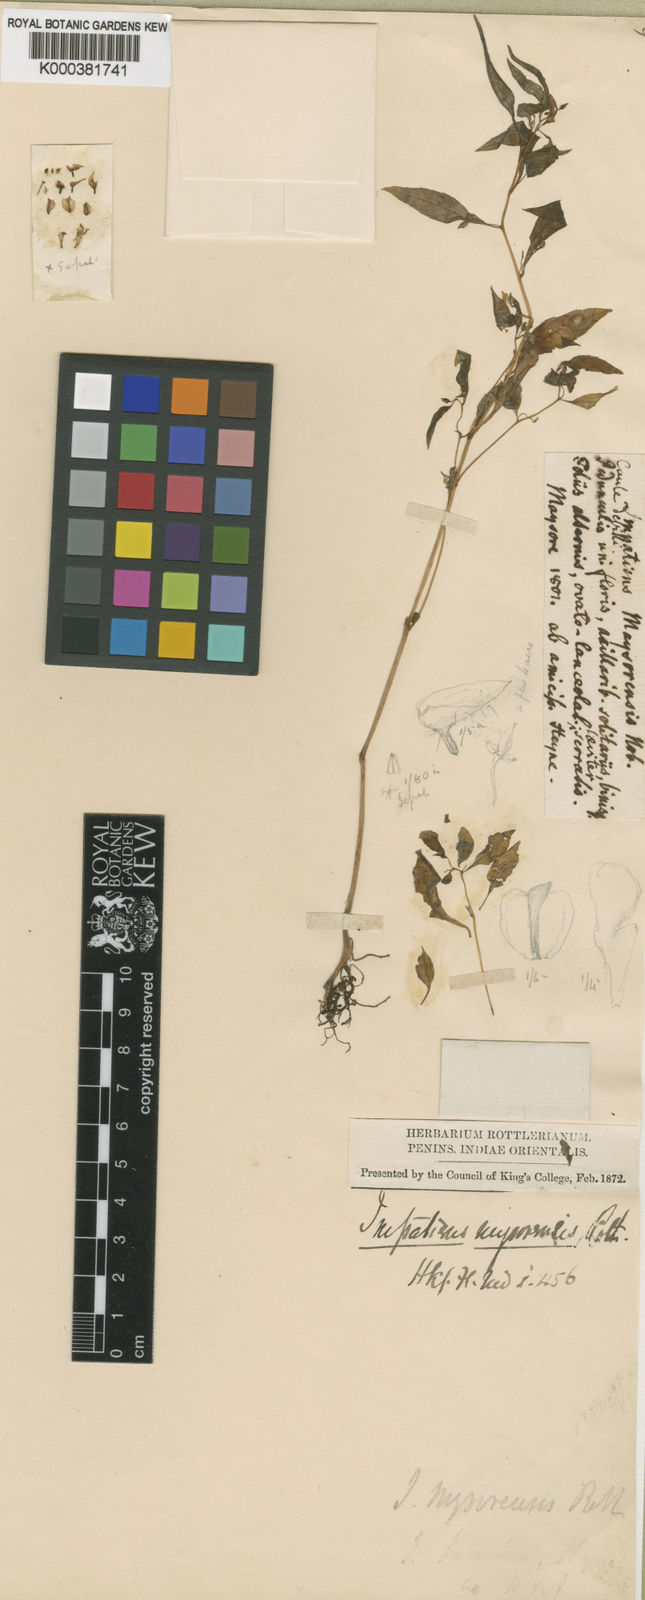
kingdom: Plantae
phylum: Tracheophyta
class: Magnoliopsida
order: Ericales
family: Balsaminaceae
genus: Impatiens
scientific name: Impatiens mysorensis
